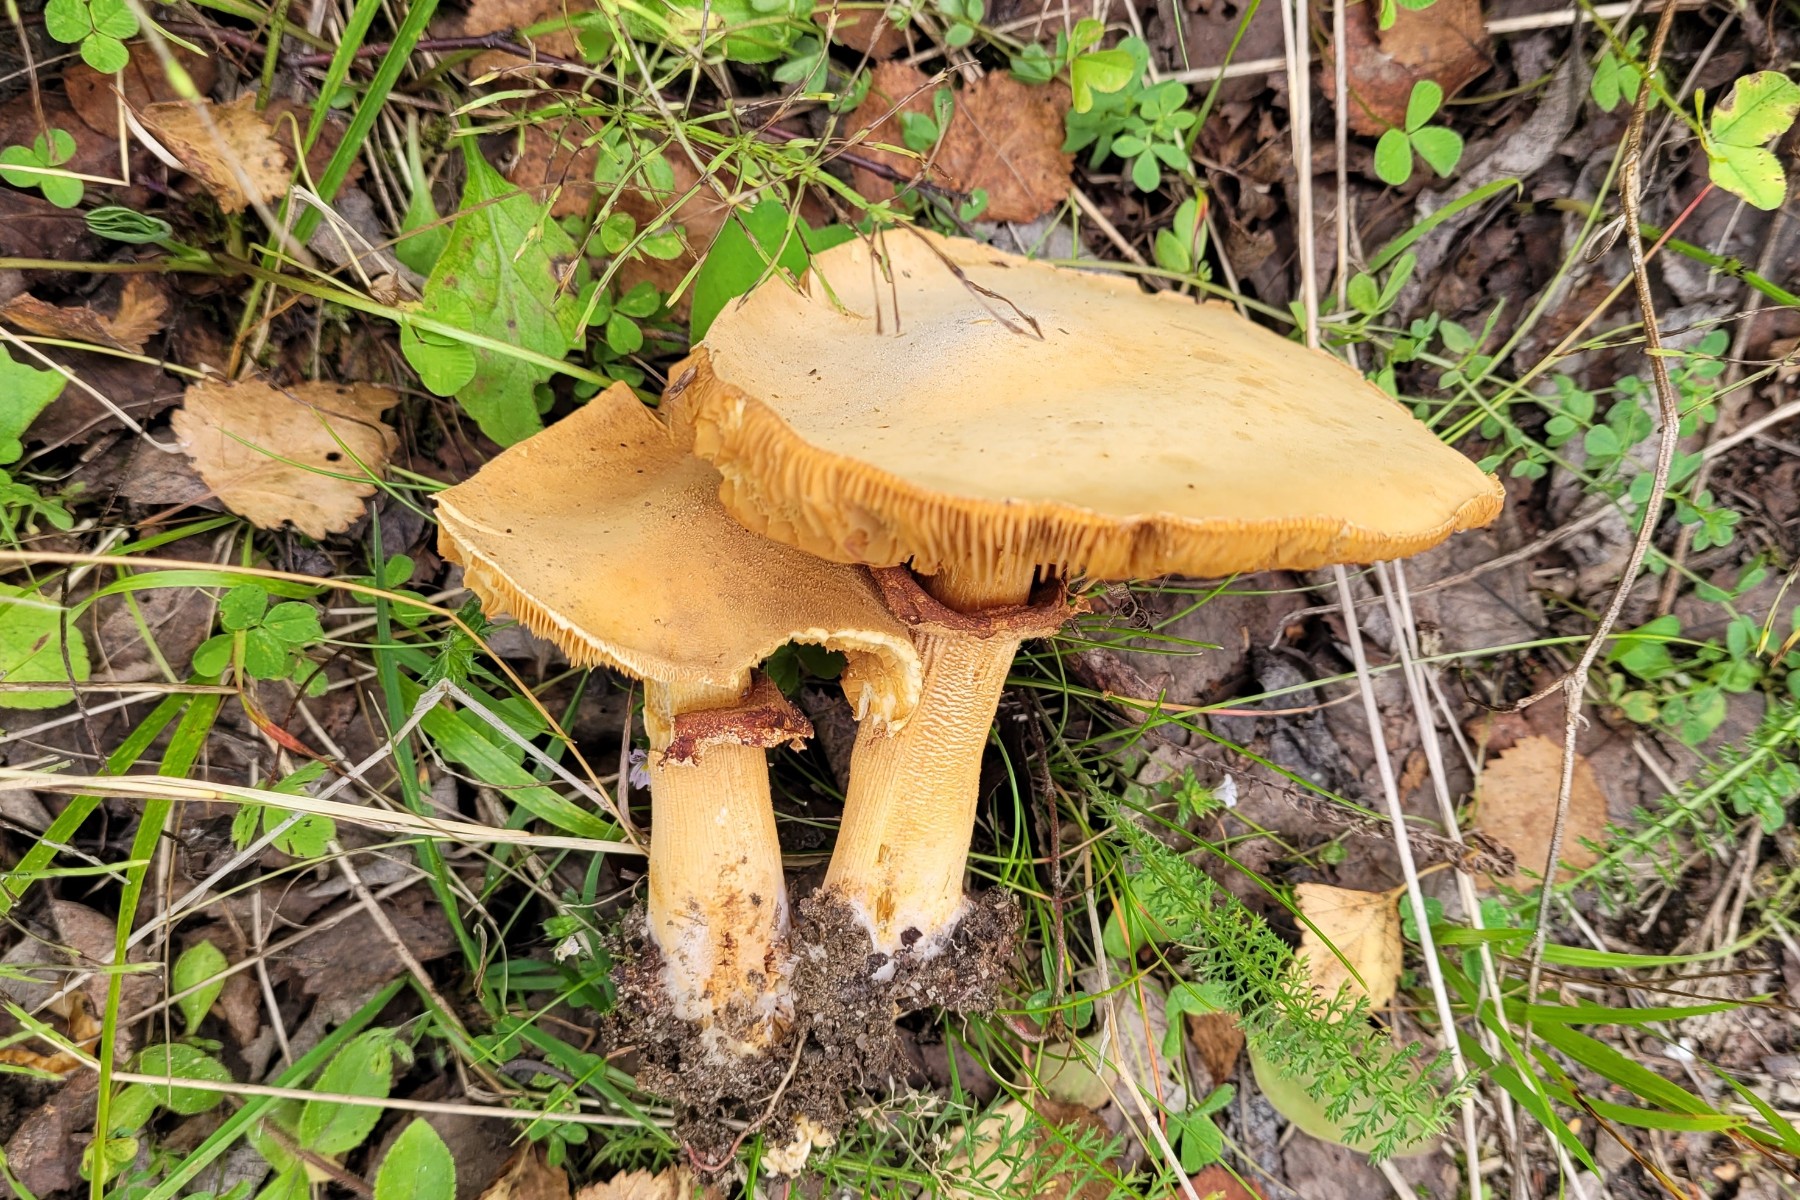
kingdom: Fungi
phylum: Basidiomycota
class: Agaricomycetes
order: Agaricales
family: Tricholomataceae
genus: Phaeolepiota
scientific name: Phaeolepiota aurea
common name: gyldenhat
